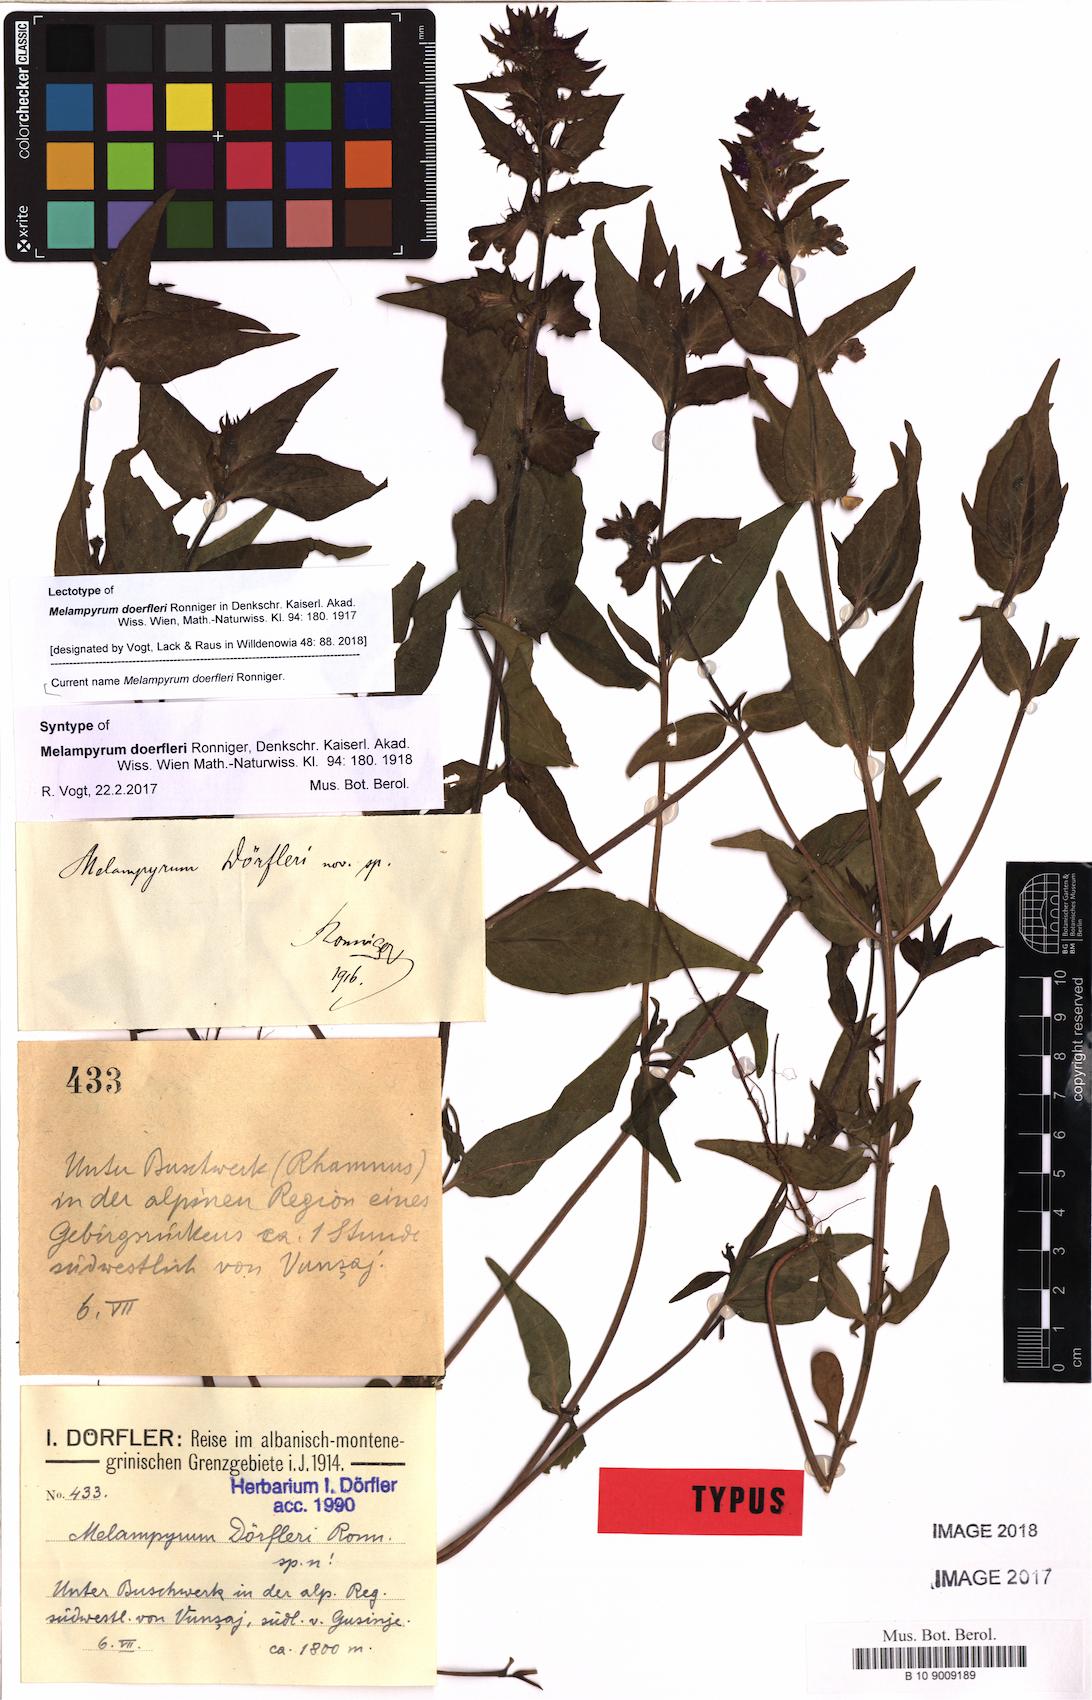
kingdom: Plantae
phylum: Tracheophyta
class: Magnoliopsida
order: Lamiales
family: Orobanchaceae
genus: Melampyrum
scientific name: Melampyrum doerfleri
